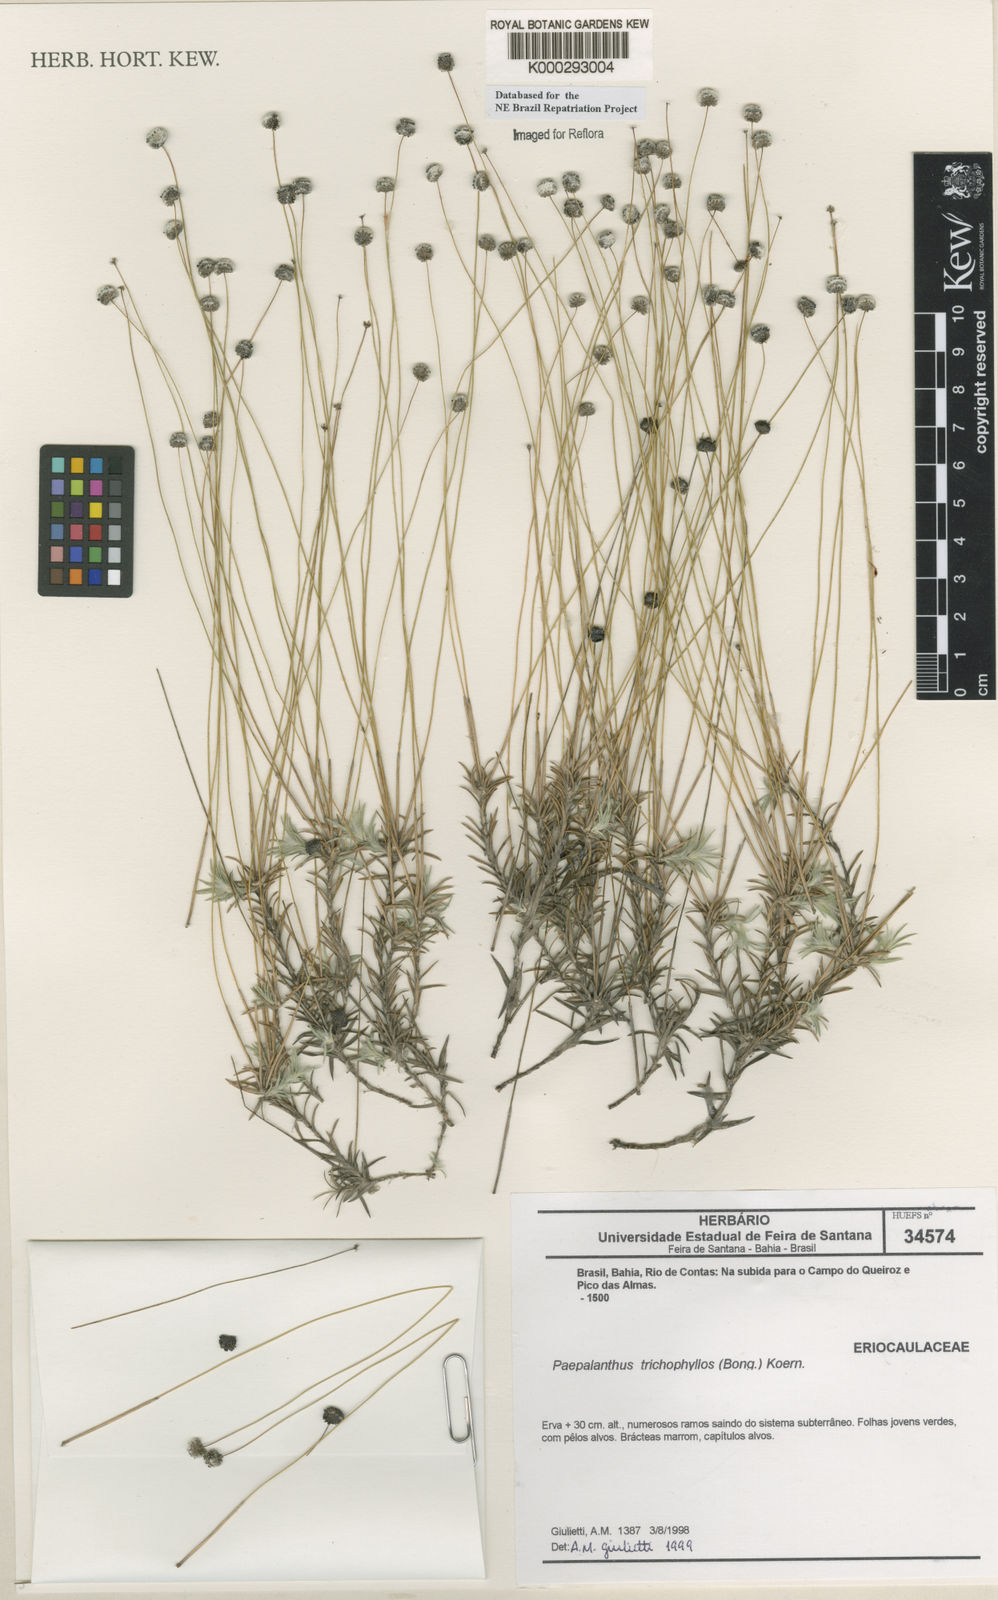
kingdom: Plantae
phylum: Tracheophyta
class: Liliopsida
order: Poales
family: Eriocaulaceae
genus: Paepalanthus
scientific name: Paepalanthus
